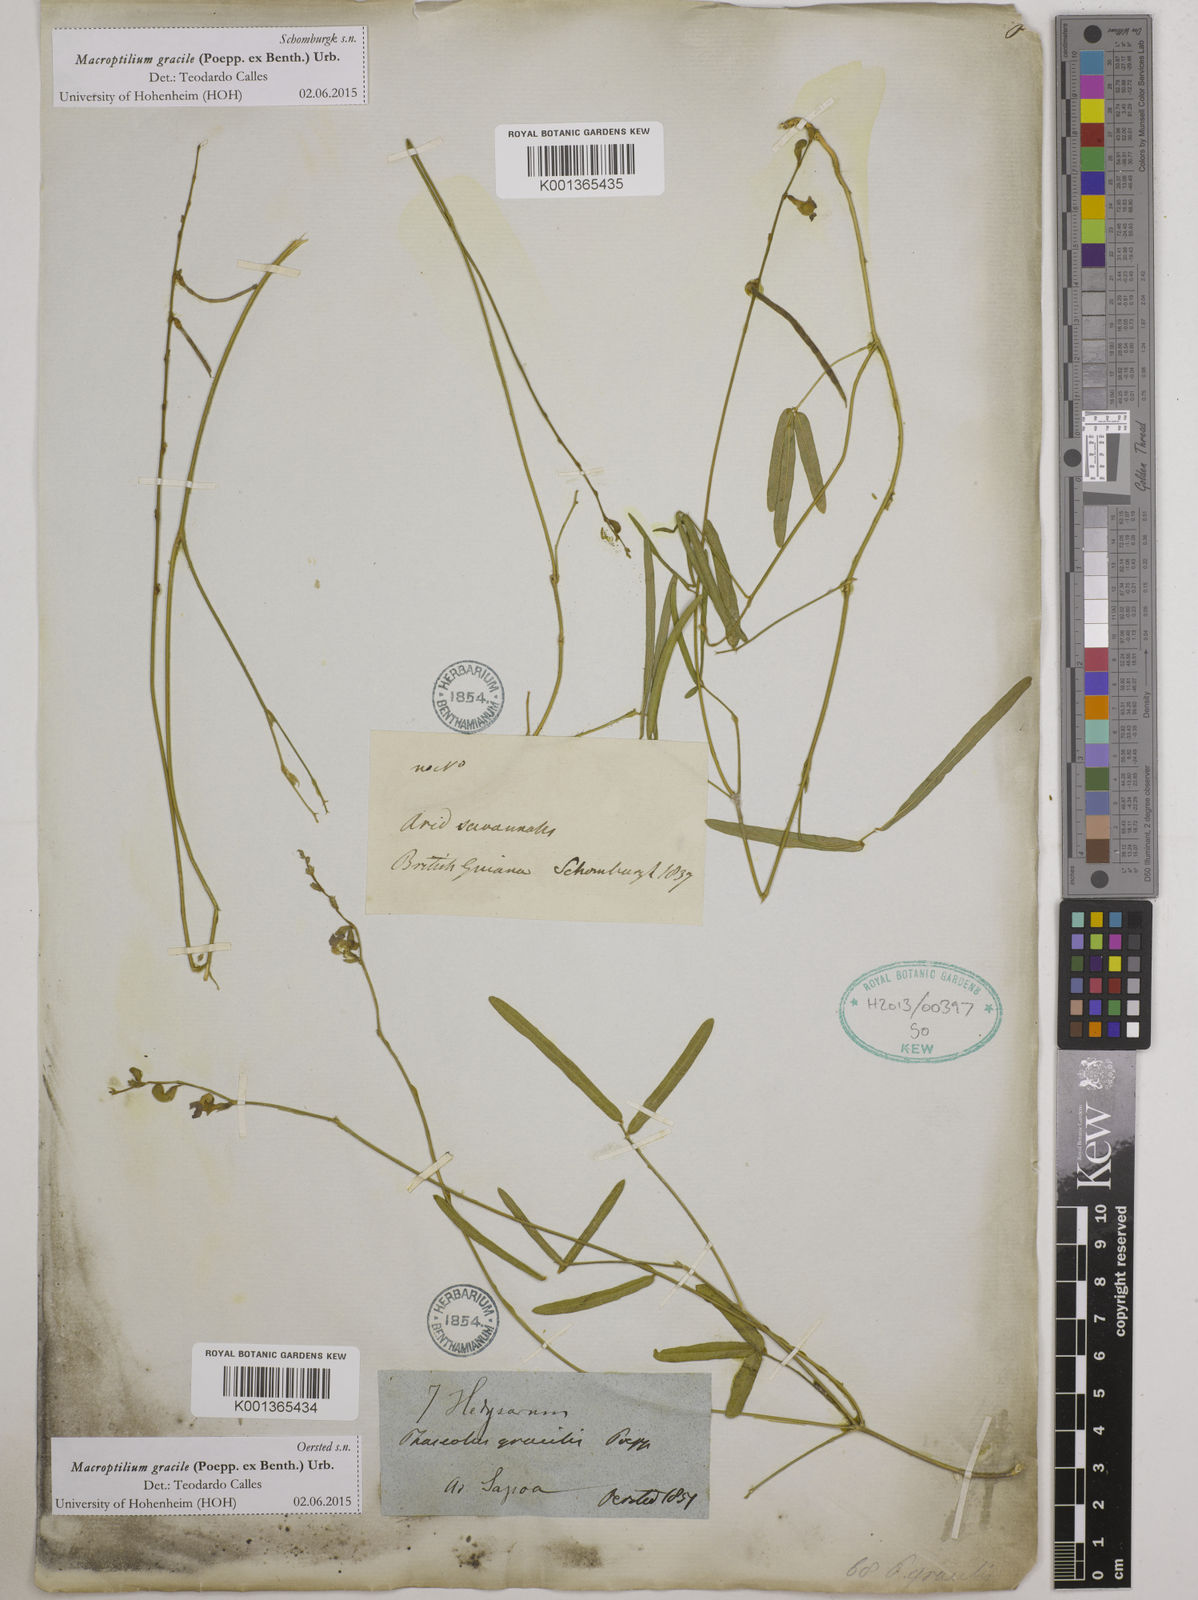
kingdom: Plantae
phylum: Tracheophyta
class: Magnoliopsida
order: Fabales
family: Fabaceae
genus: Macroptilium
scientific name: Macroptilium gracile
